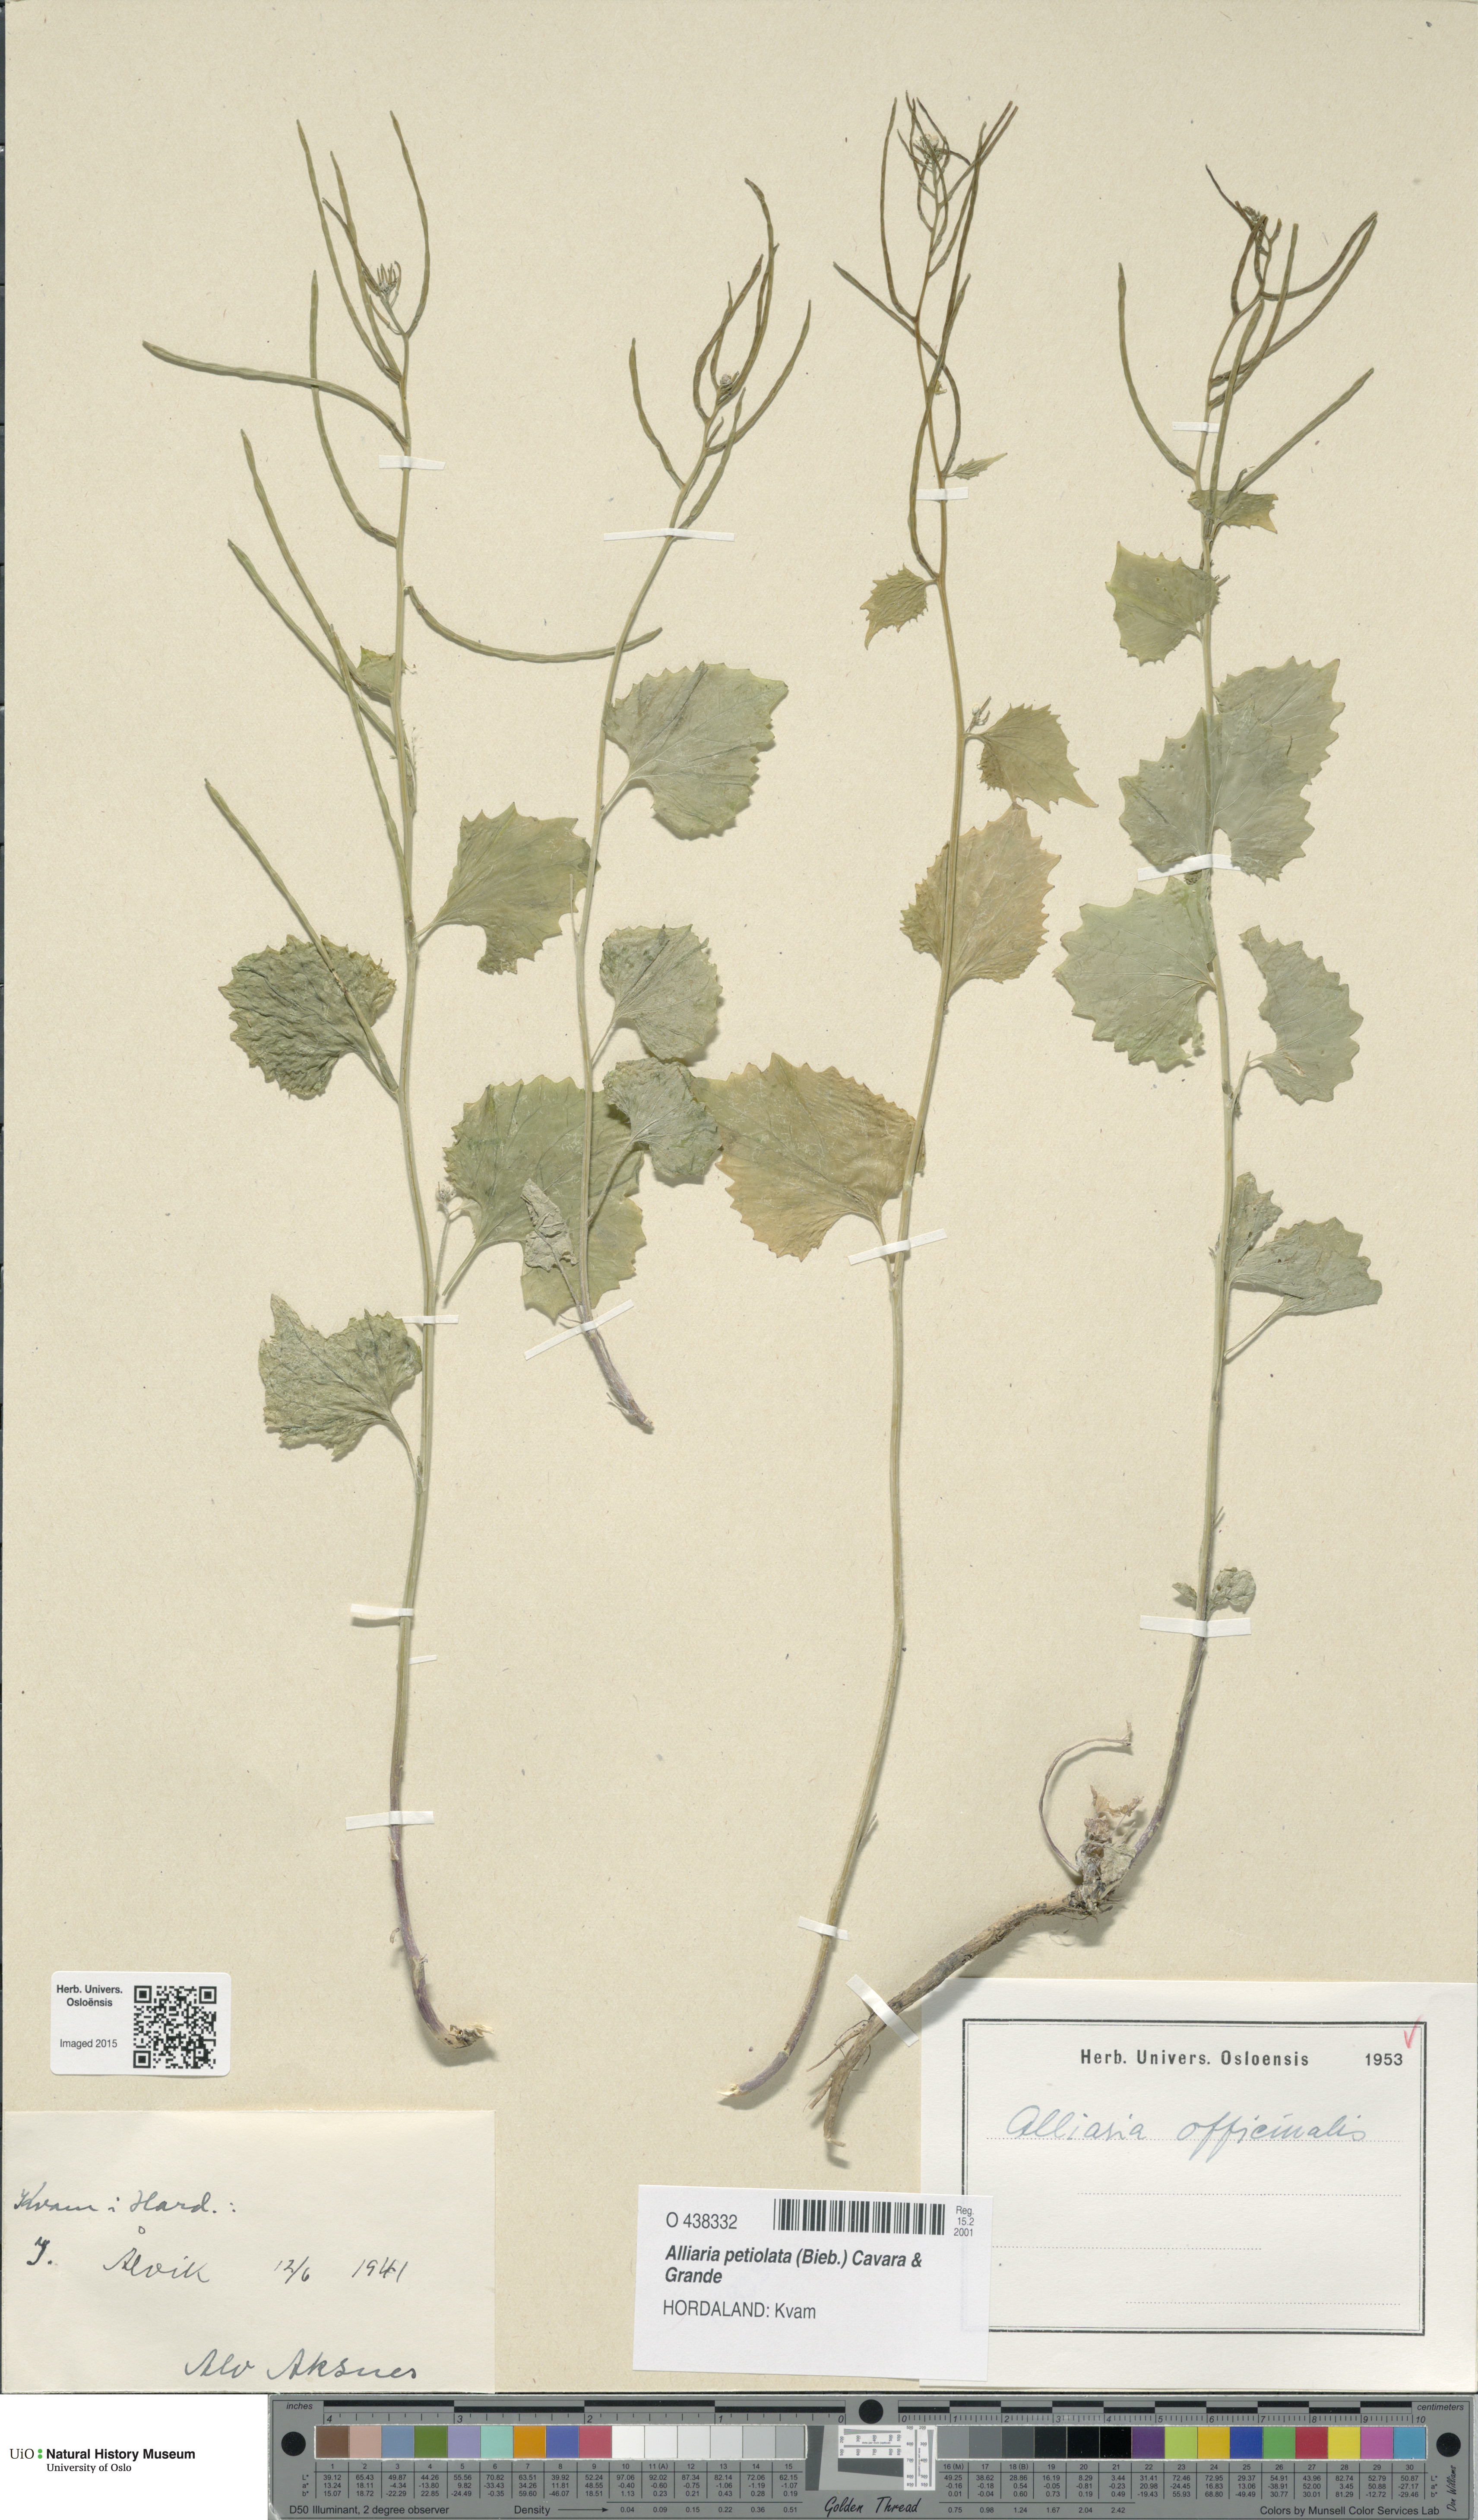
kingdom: Plantae
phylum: Tracheophyta
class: Magnoliopsida
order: Brassicales
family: Brassicaceae
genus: Alliaria
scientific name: Alliaria petiolata
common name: Garlic mustard
